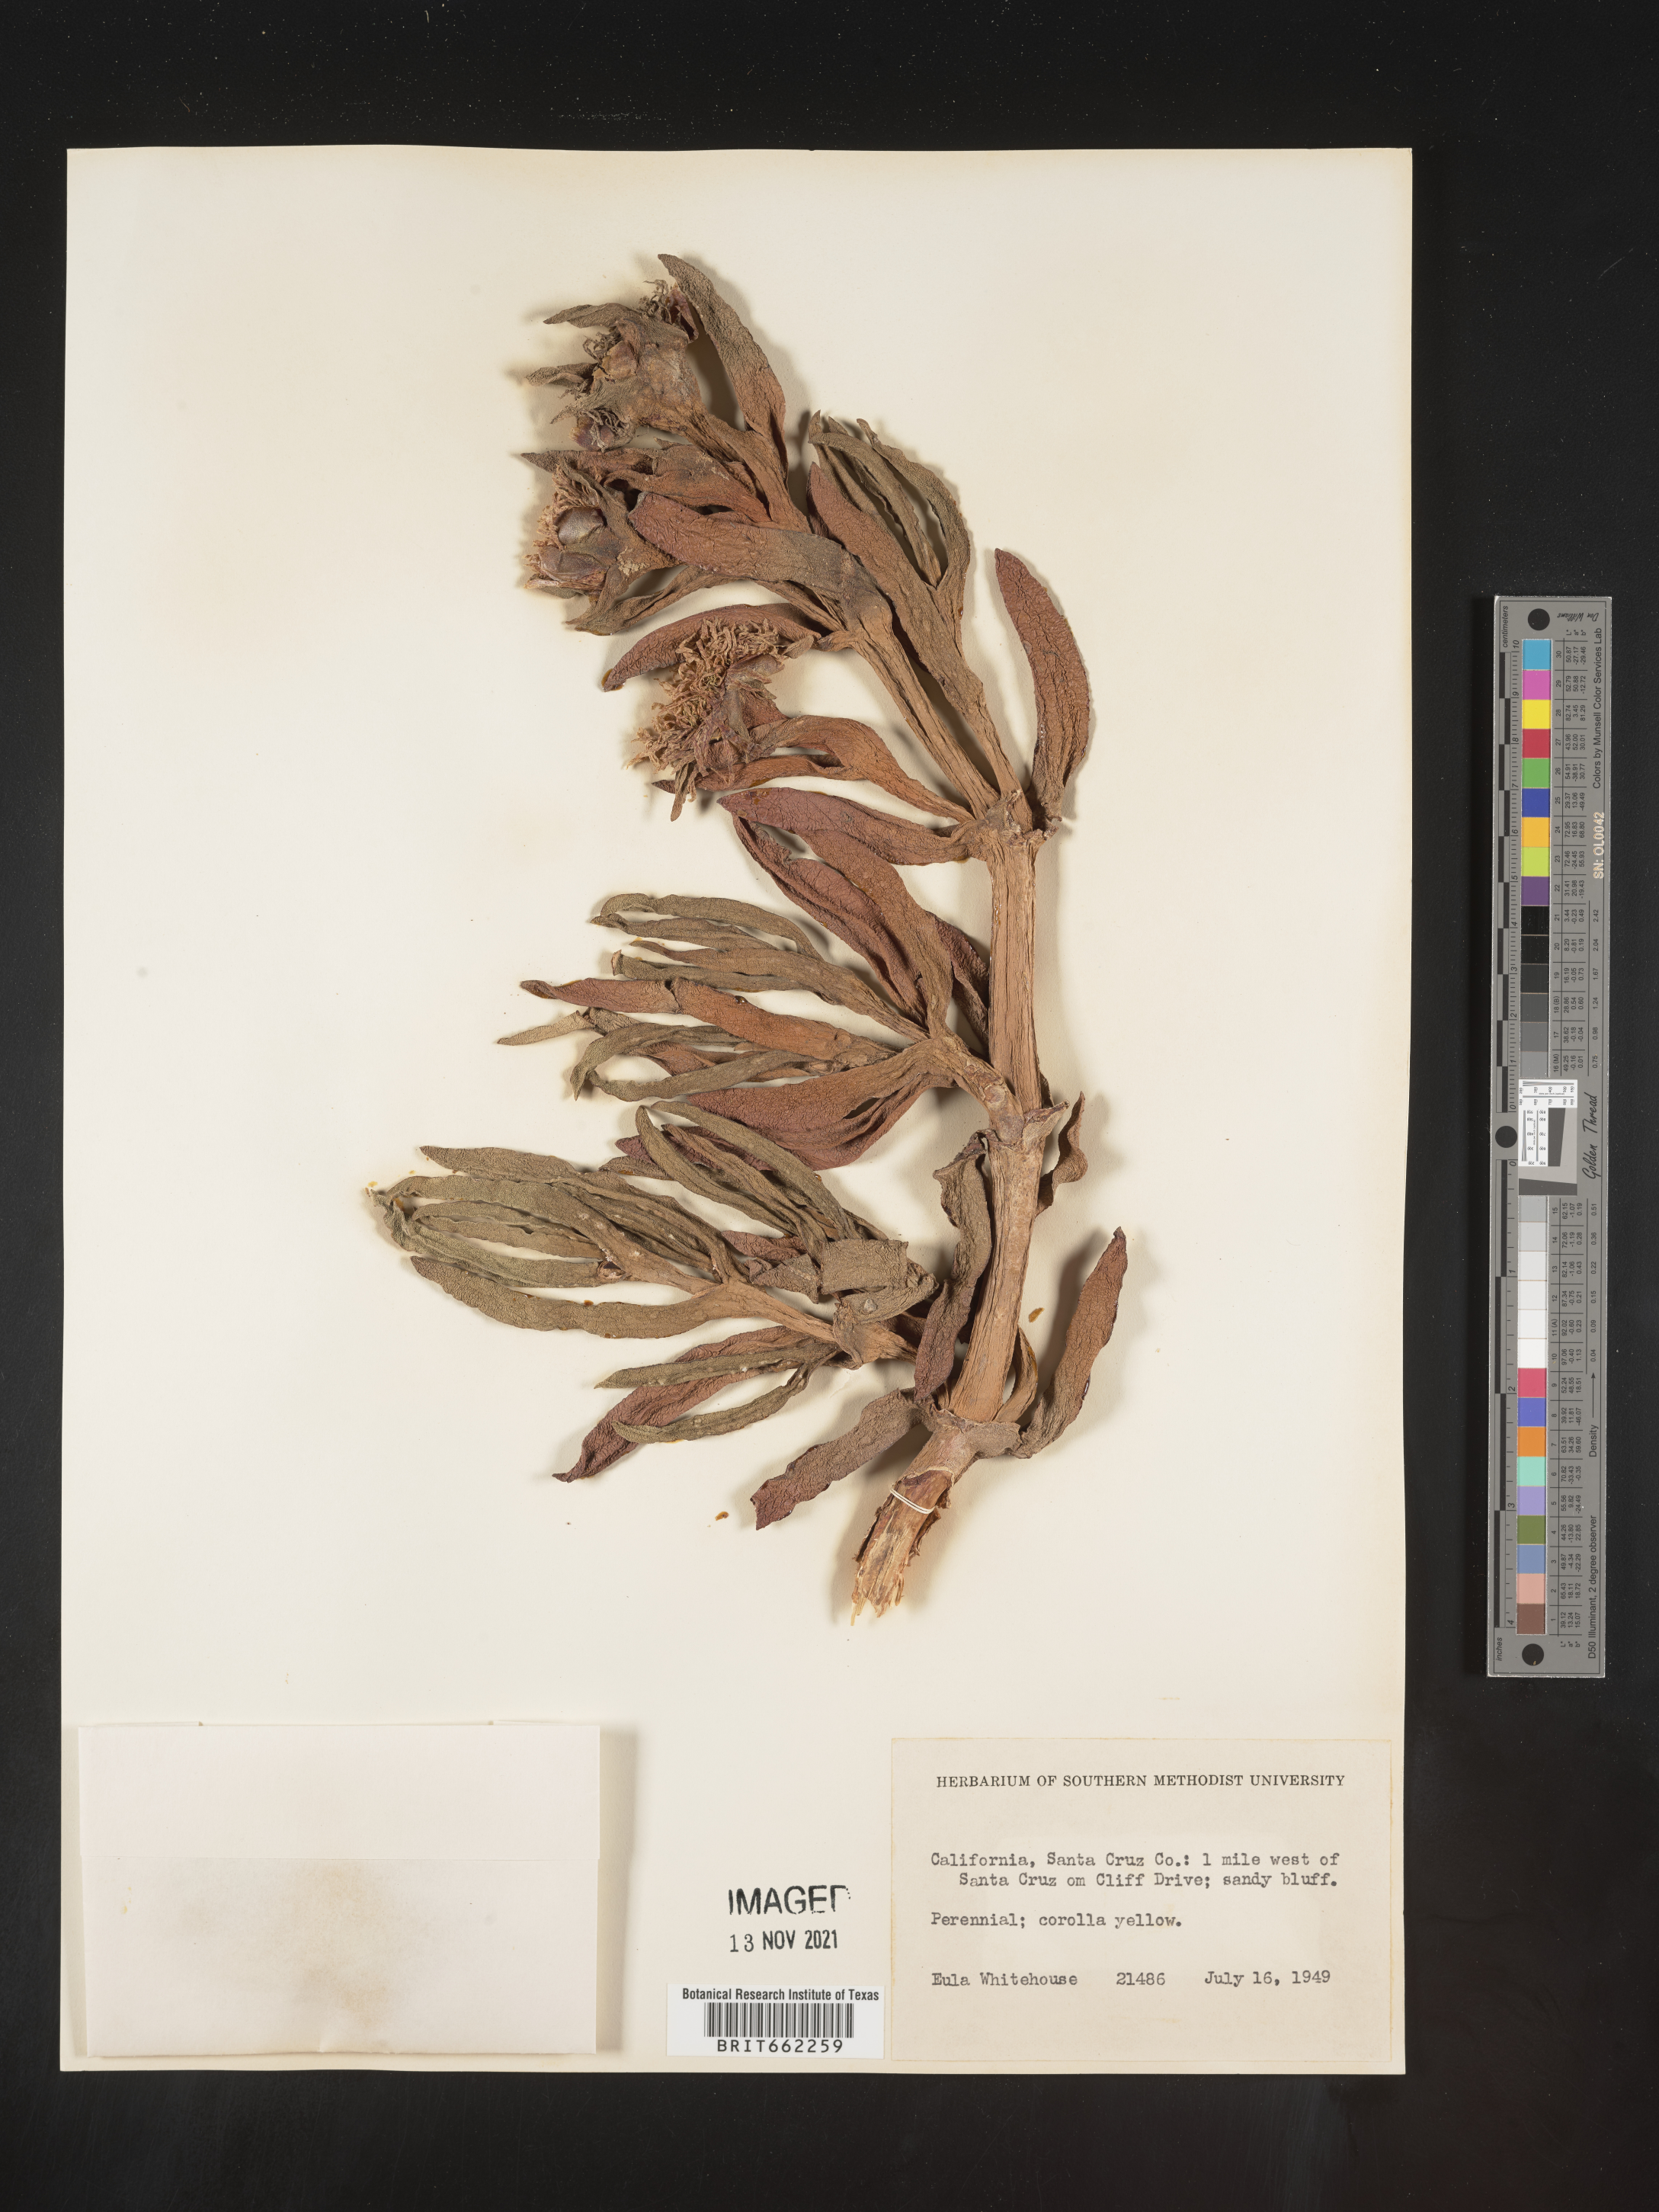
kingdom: Plantae
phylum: Tracheophyta
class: Magnoliopsida
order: Caryophyllales
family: Aizoaceae
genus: Mesembryanthemum
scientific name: Mesembryanthemum
